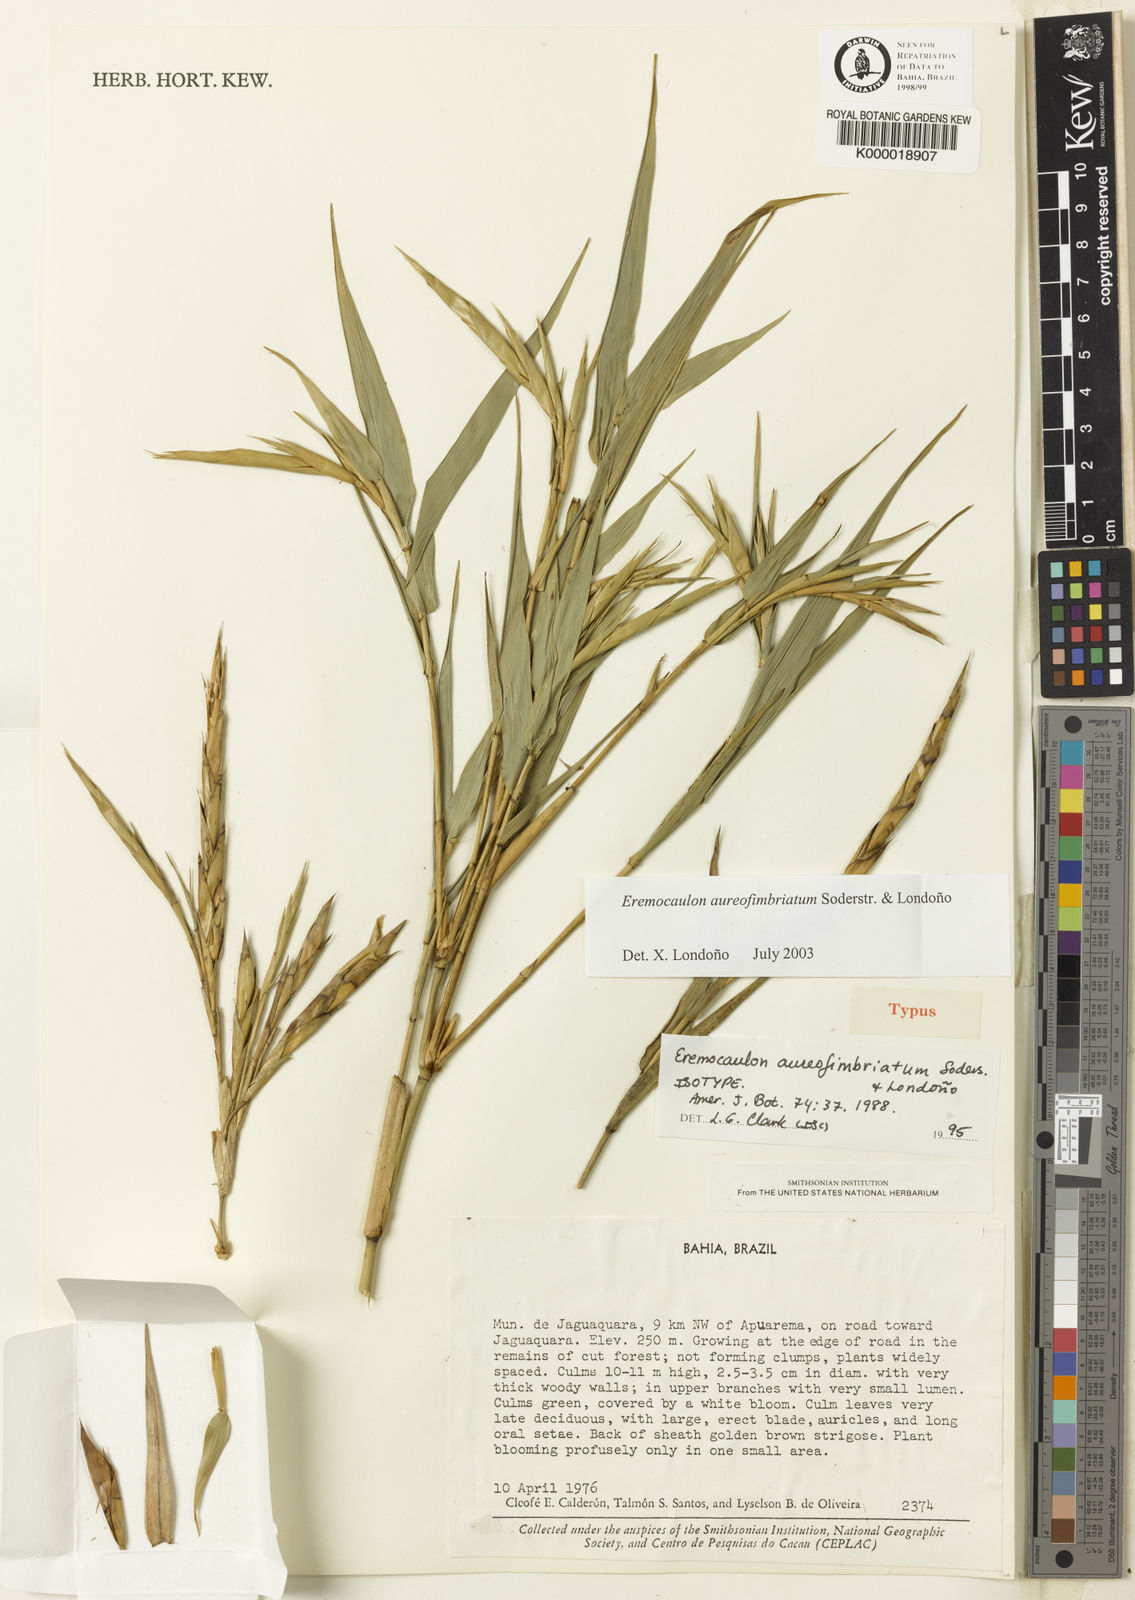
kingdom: Plantae
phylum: Tracheophyta
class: Liliopsida
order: Poales
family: Poaceae
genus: Eremocaulon
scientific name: Eremocaulon
